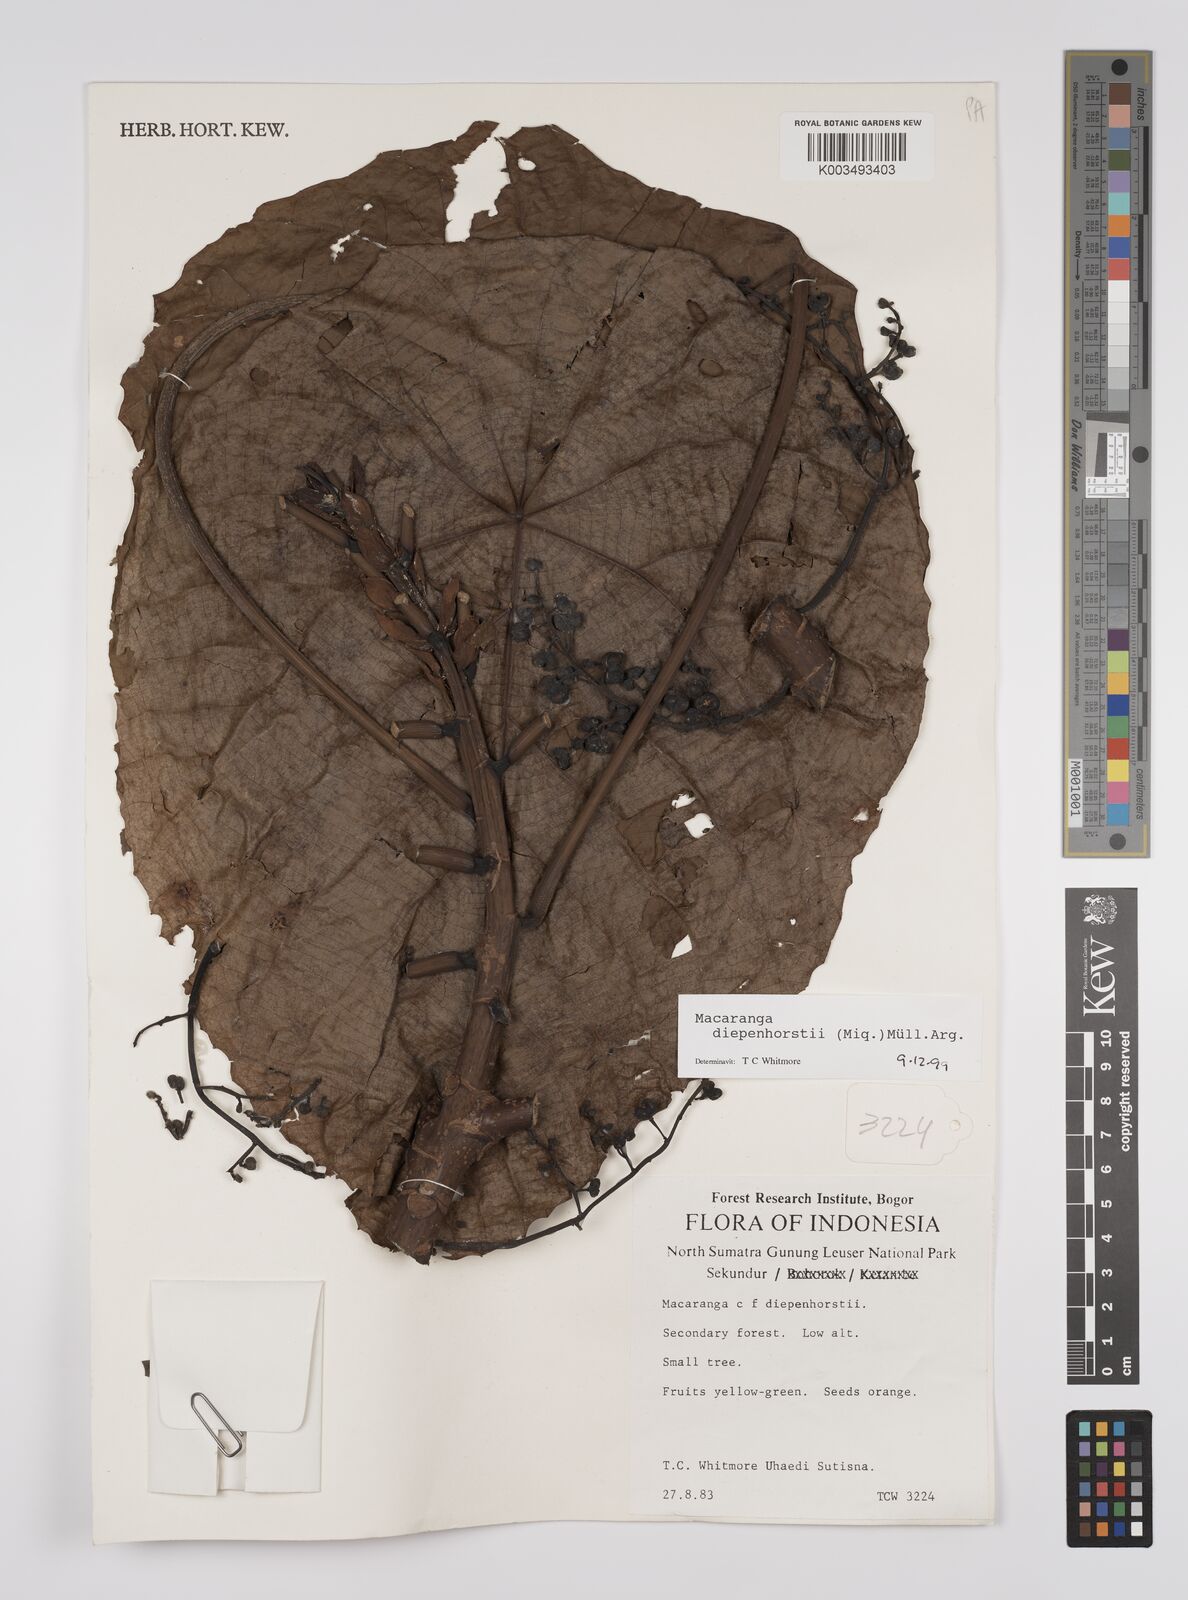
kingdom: Plantae
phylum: Tracheophyta
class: Magnoliopsida
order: Malpighiales
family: Euphorbiaceae
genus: Macaranga
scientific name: Macaranga diepenhorstii
